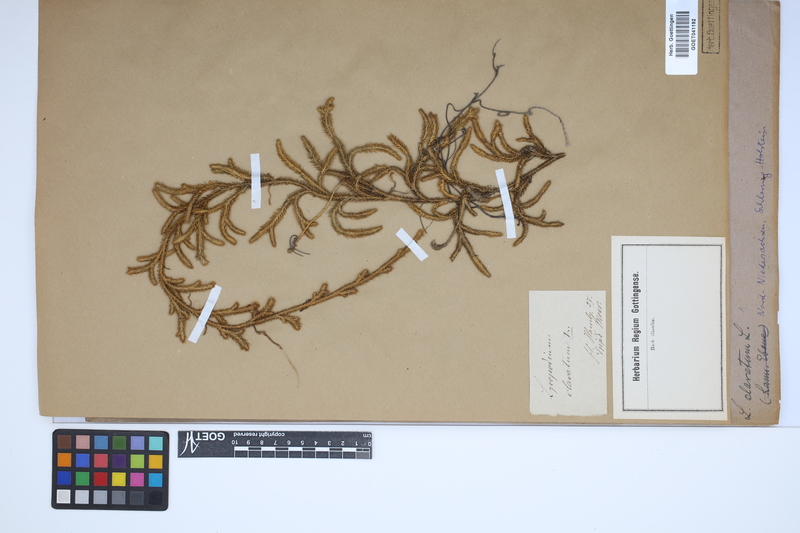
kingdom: Plantae
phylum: Tracheophyta
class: Lycopodiopsida
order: Lycopodiales
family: Lycopodiaceae
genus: Lycopodium
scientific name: Lycopodium clavatum
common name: Stag's-horn clubmoss
